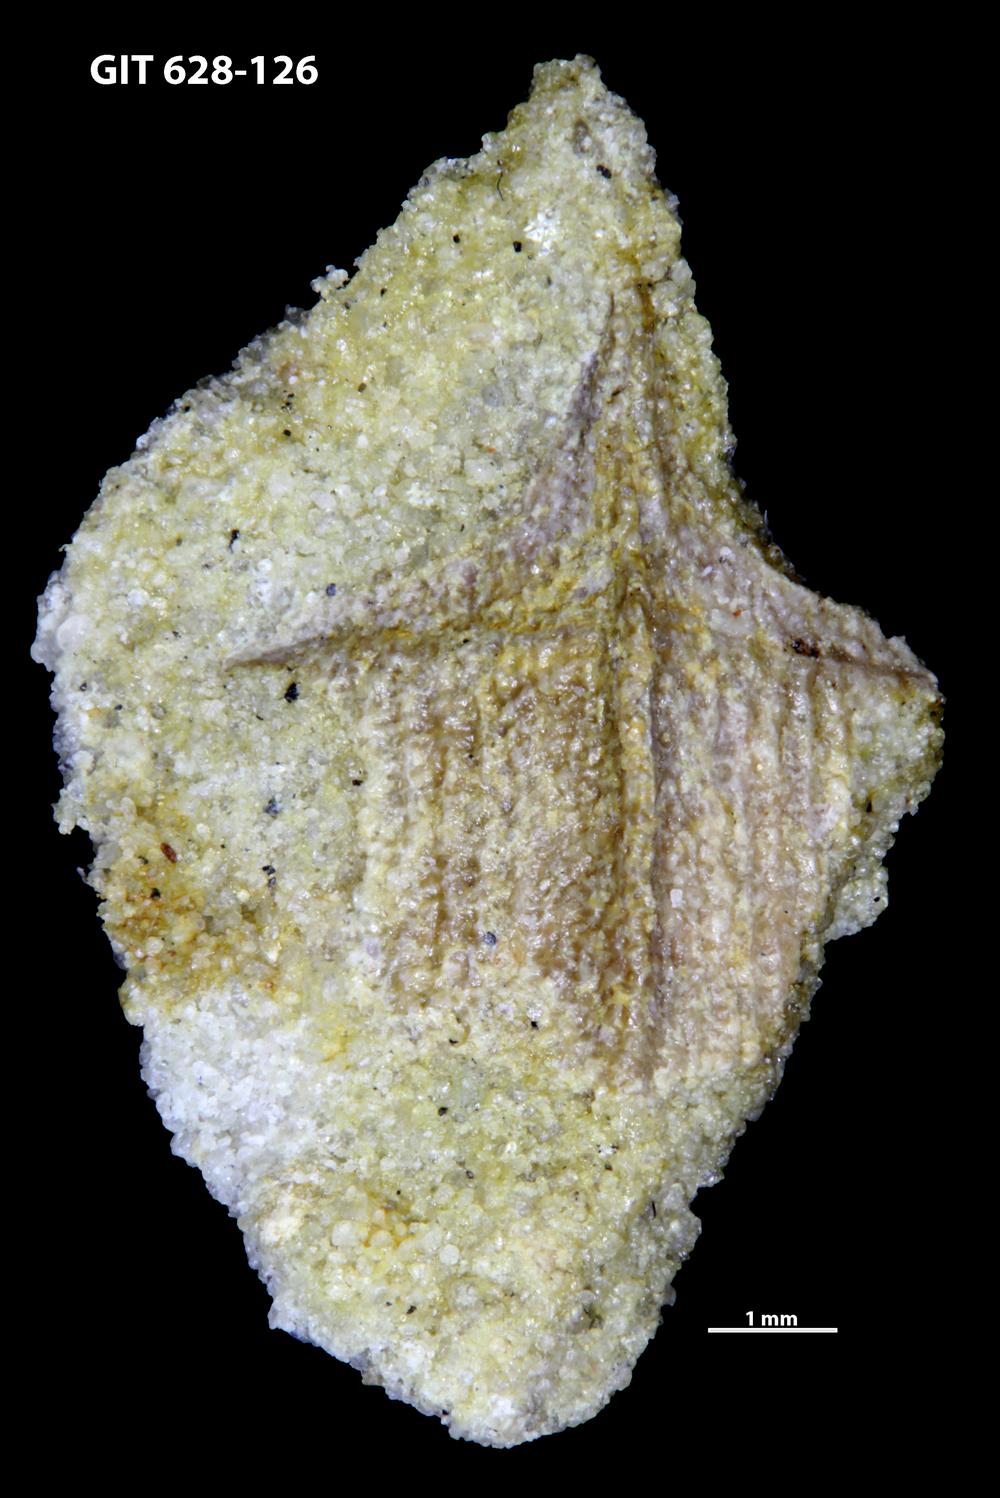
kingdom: Animalia
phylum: Chordata
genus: Microbrachium
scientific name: Microbrachium Microbrachius dicki
